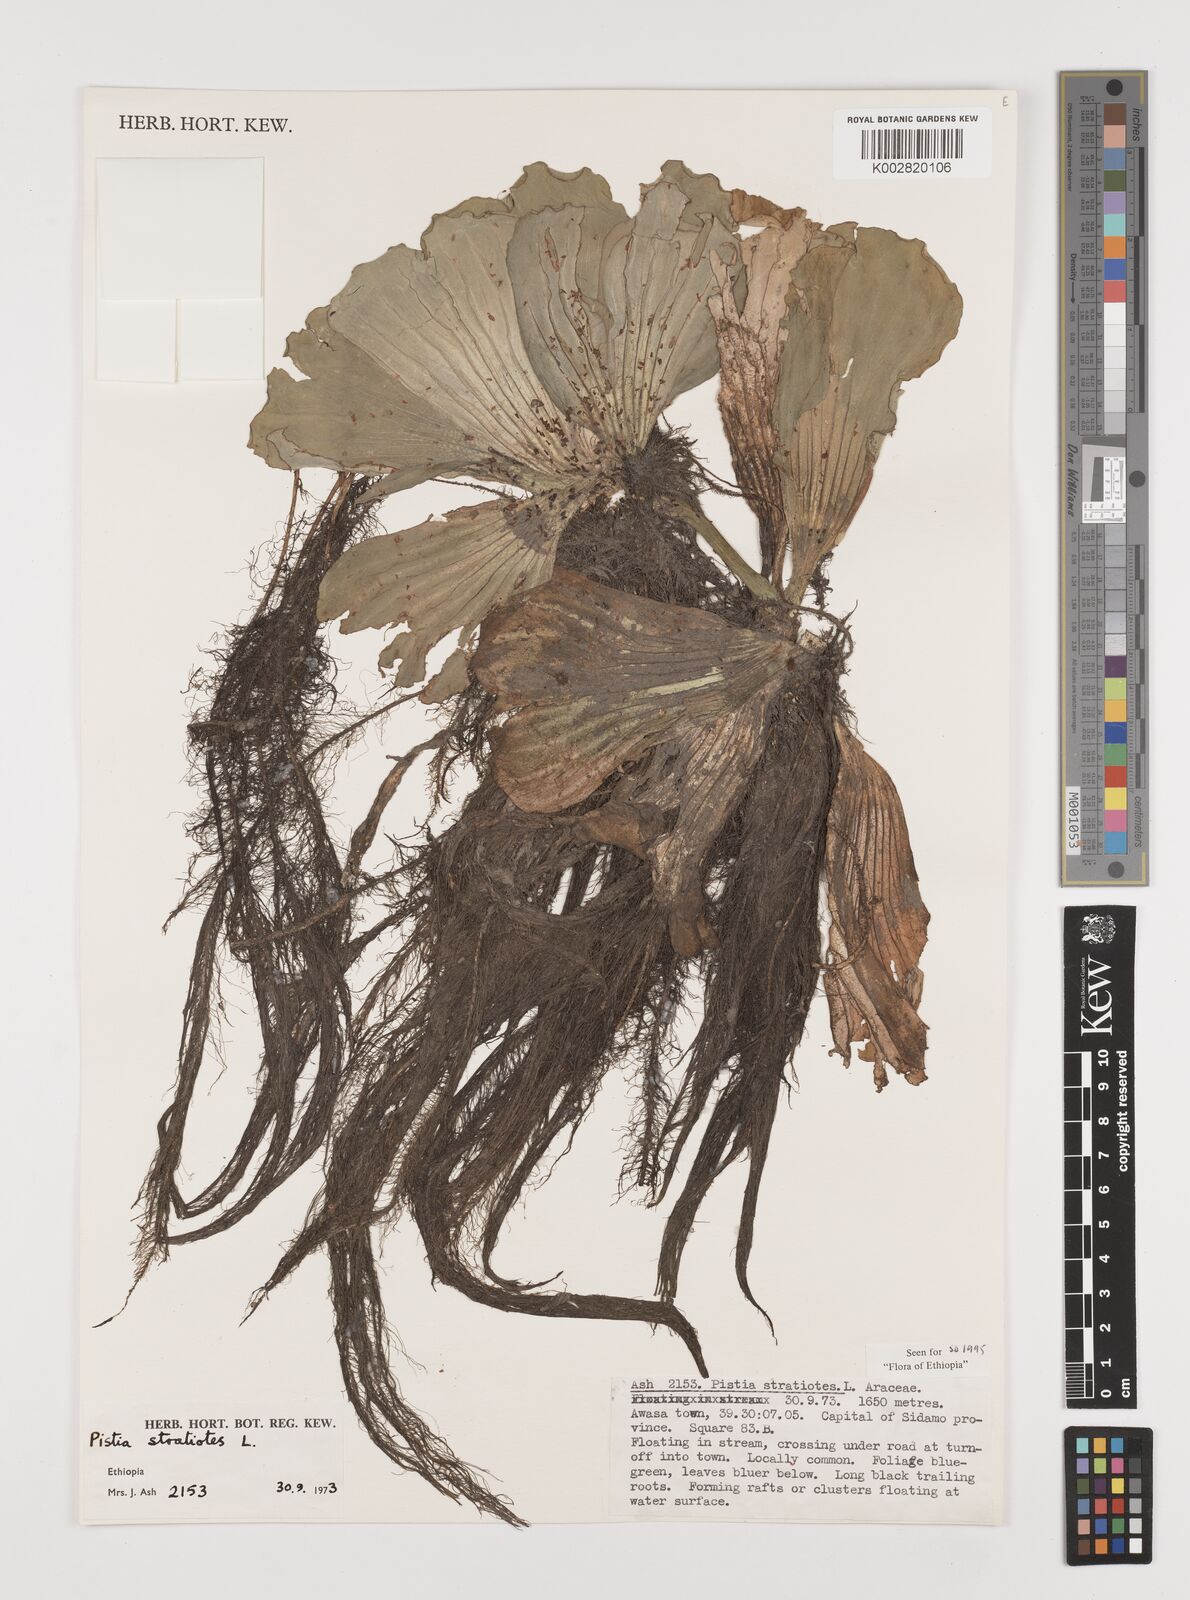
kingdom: Plantae
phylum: Tracheophyta
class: Liliopsida
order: Alismatales
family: Araceae
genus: Pistia
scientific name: Pistia stratiotes
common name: Water lettuce
